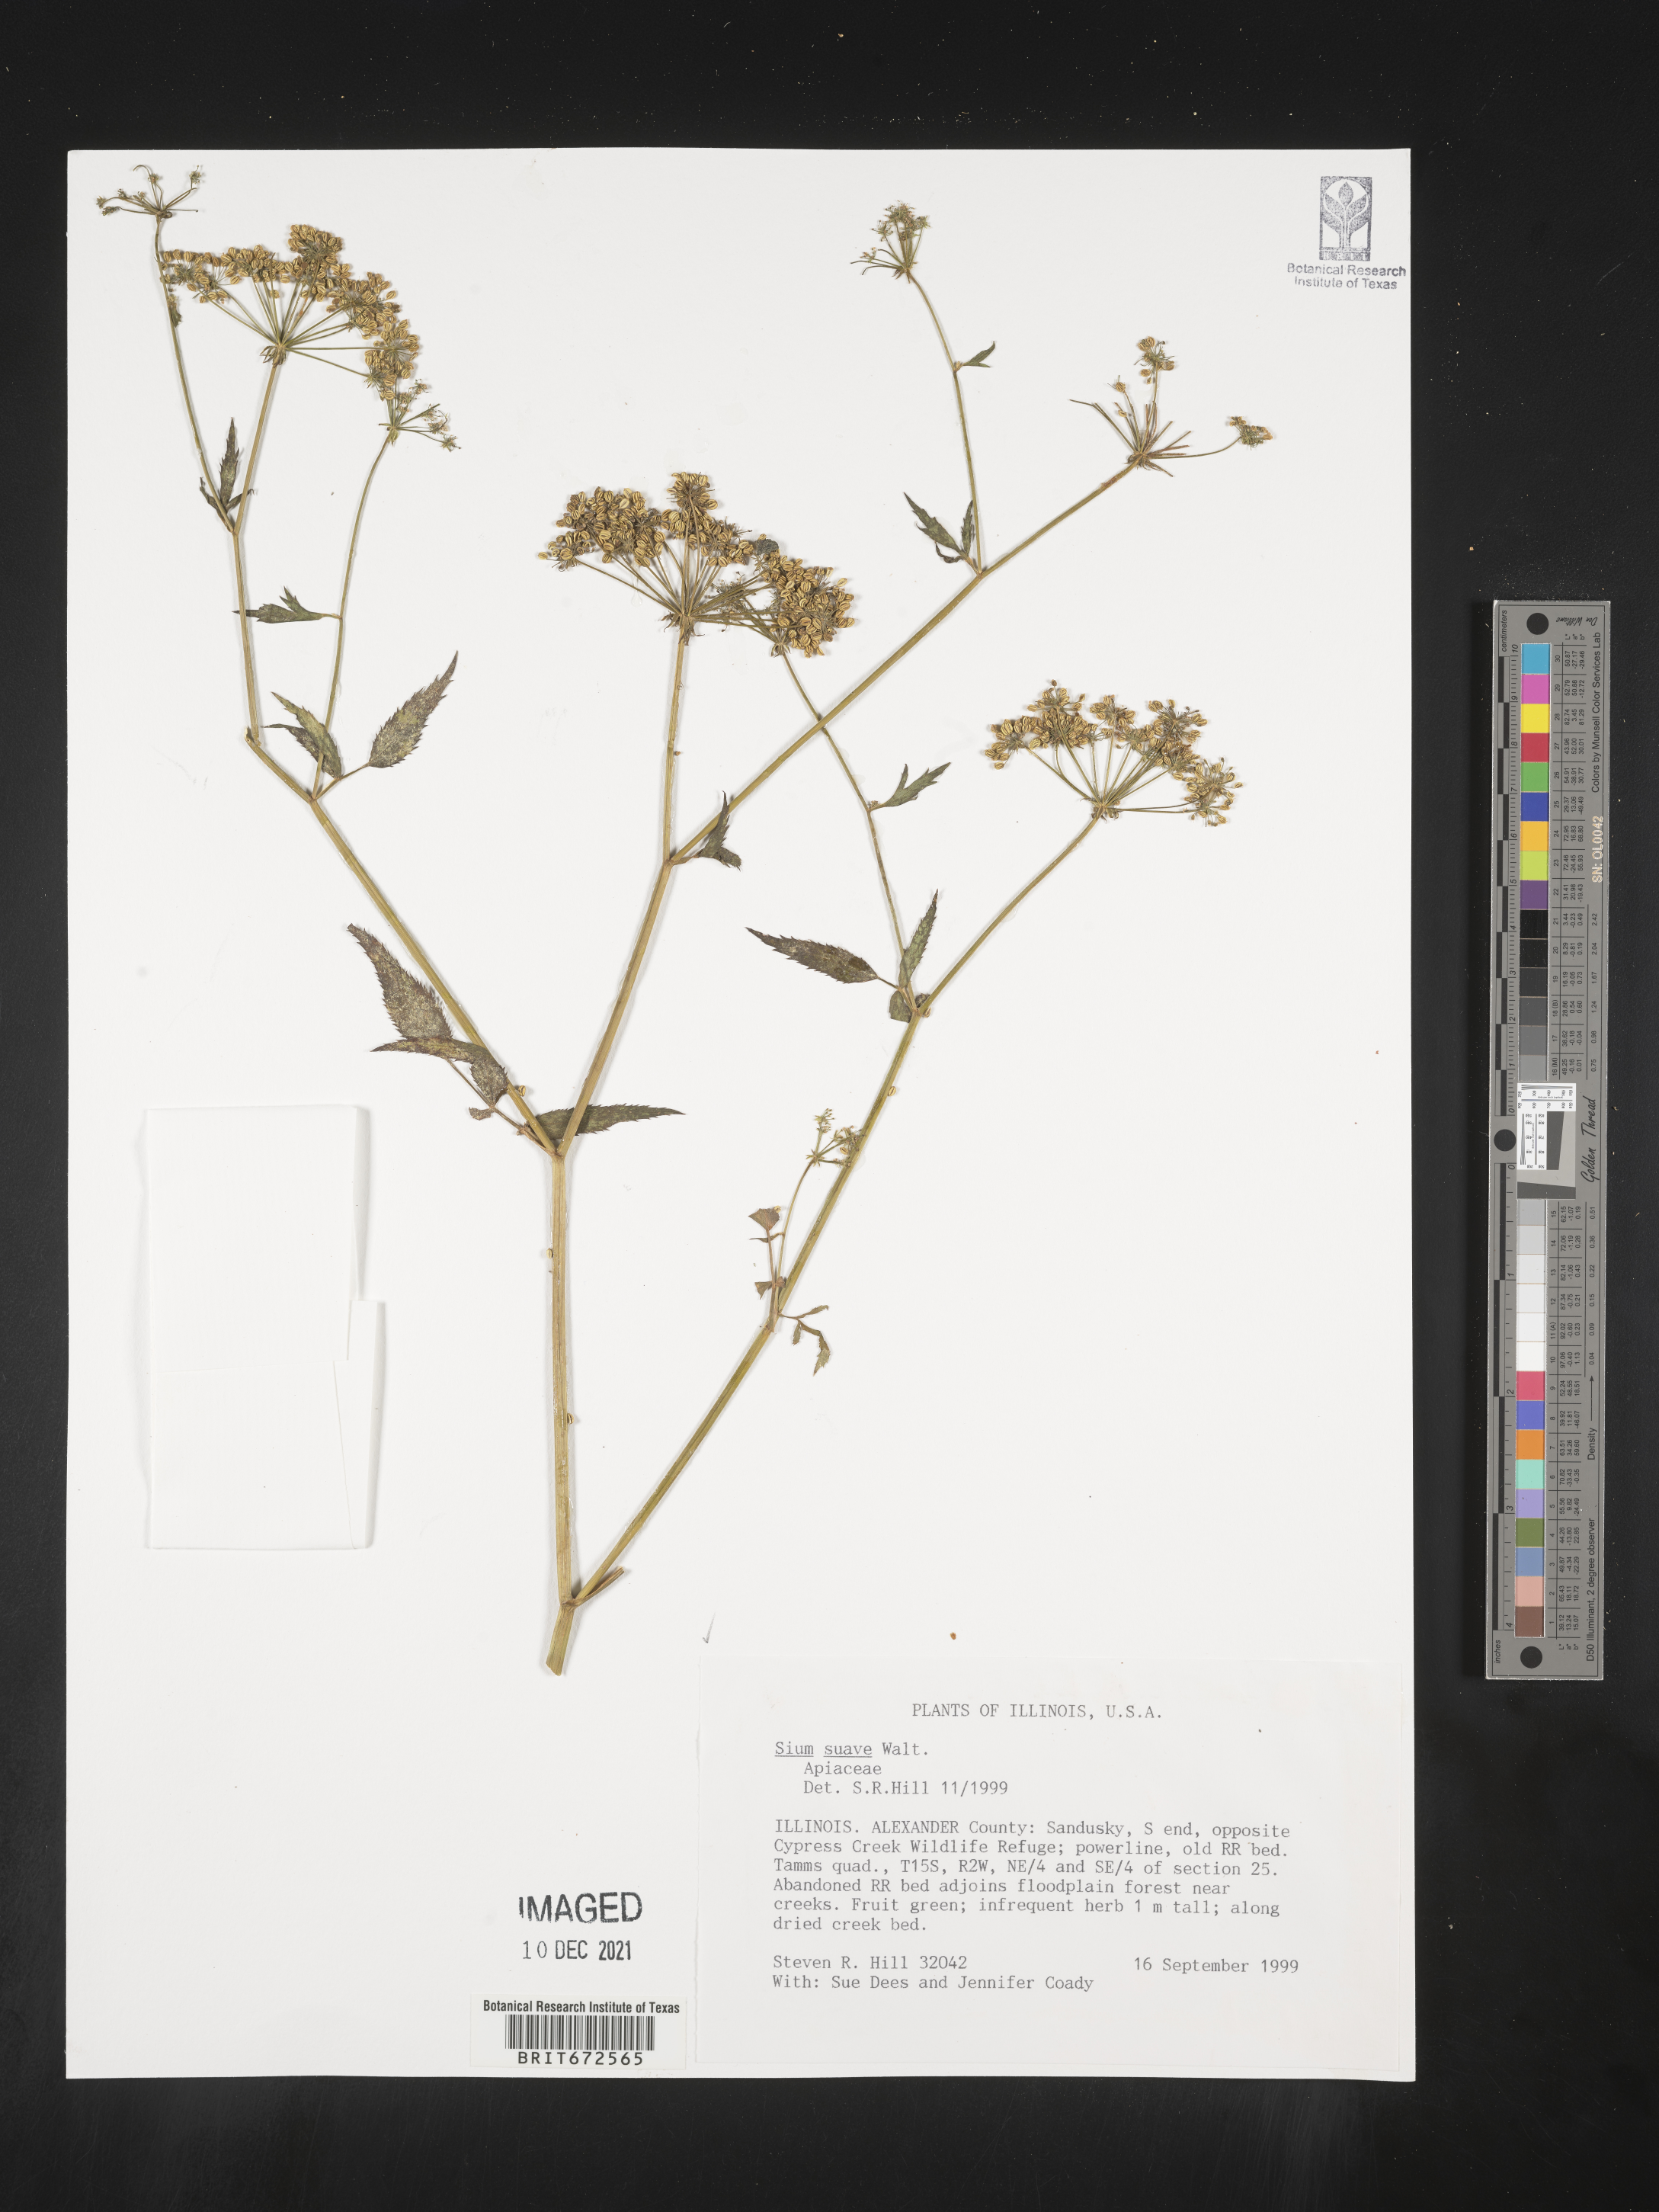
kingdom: Plantae
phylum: Tracheophyta
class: Magnoliopsida
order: Apiales
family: Apiaceae
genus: Sium
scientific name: Sium suave
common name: Hemlock water-parsnip
